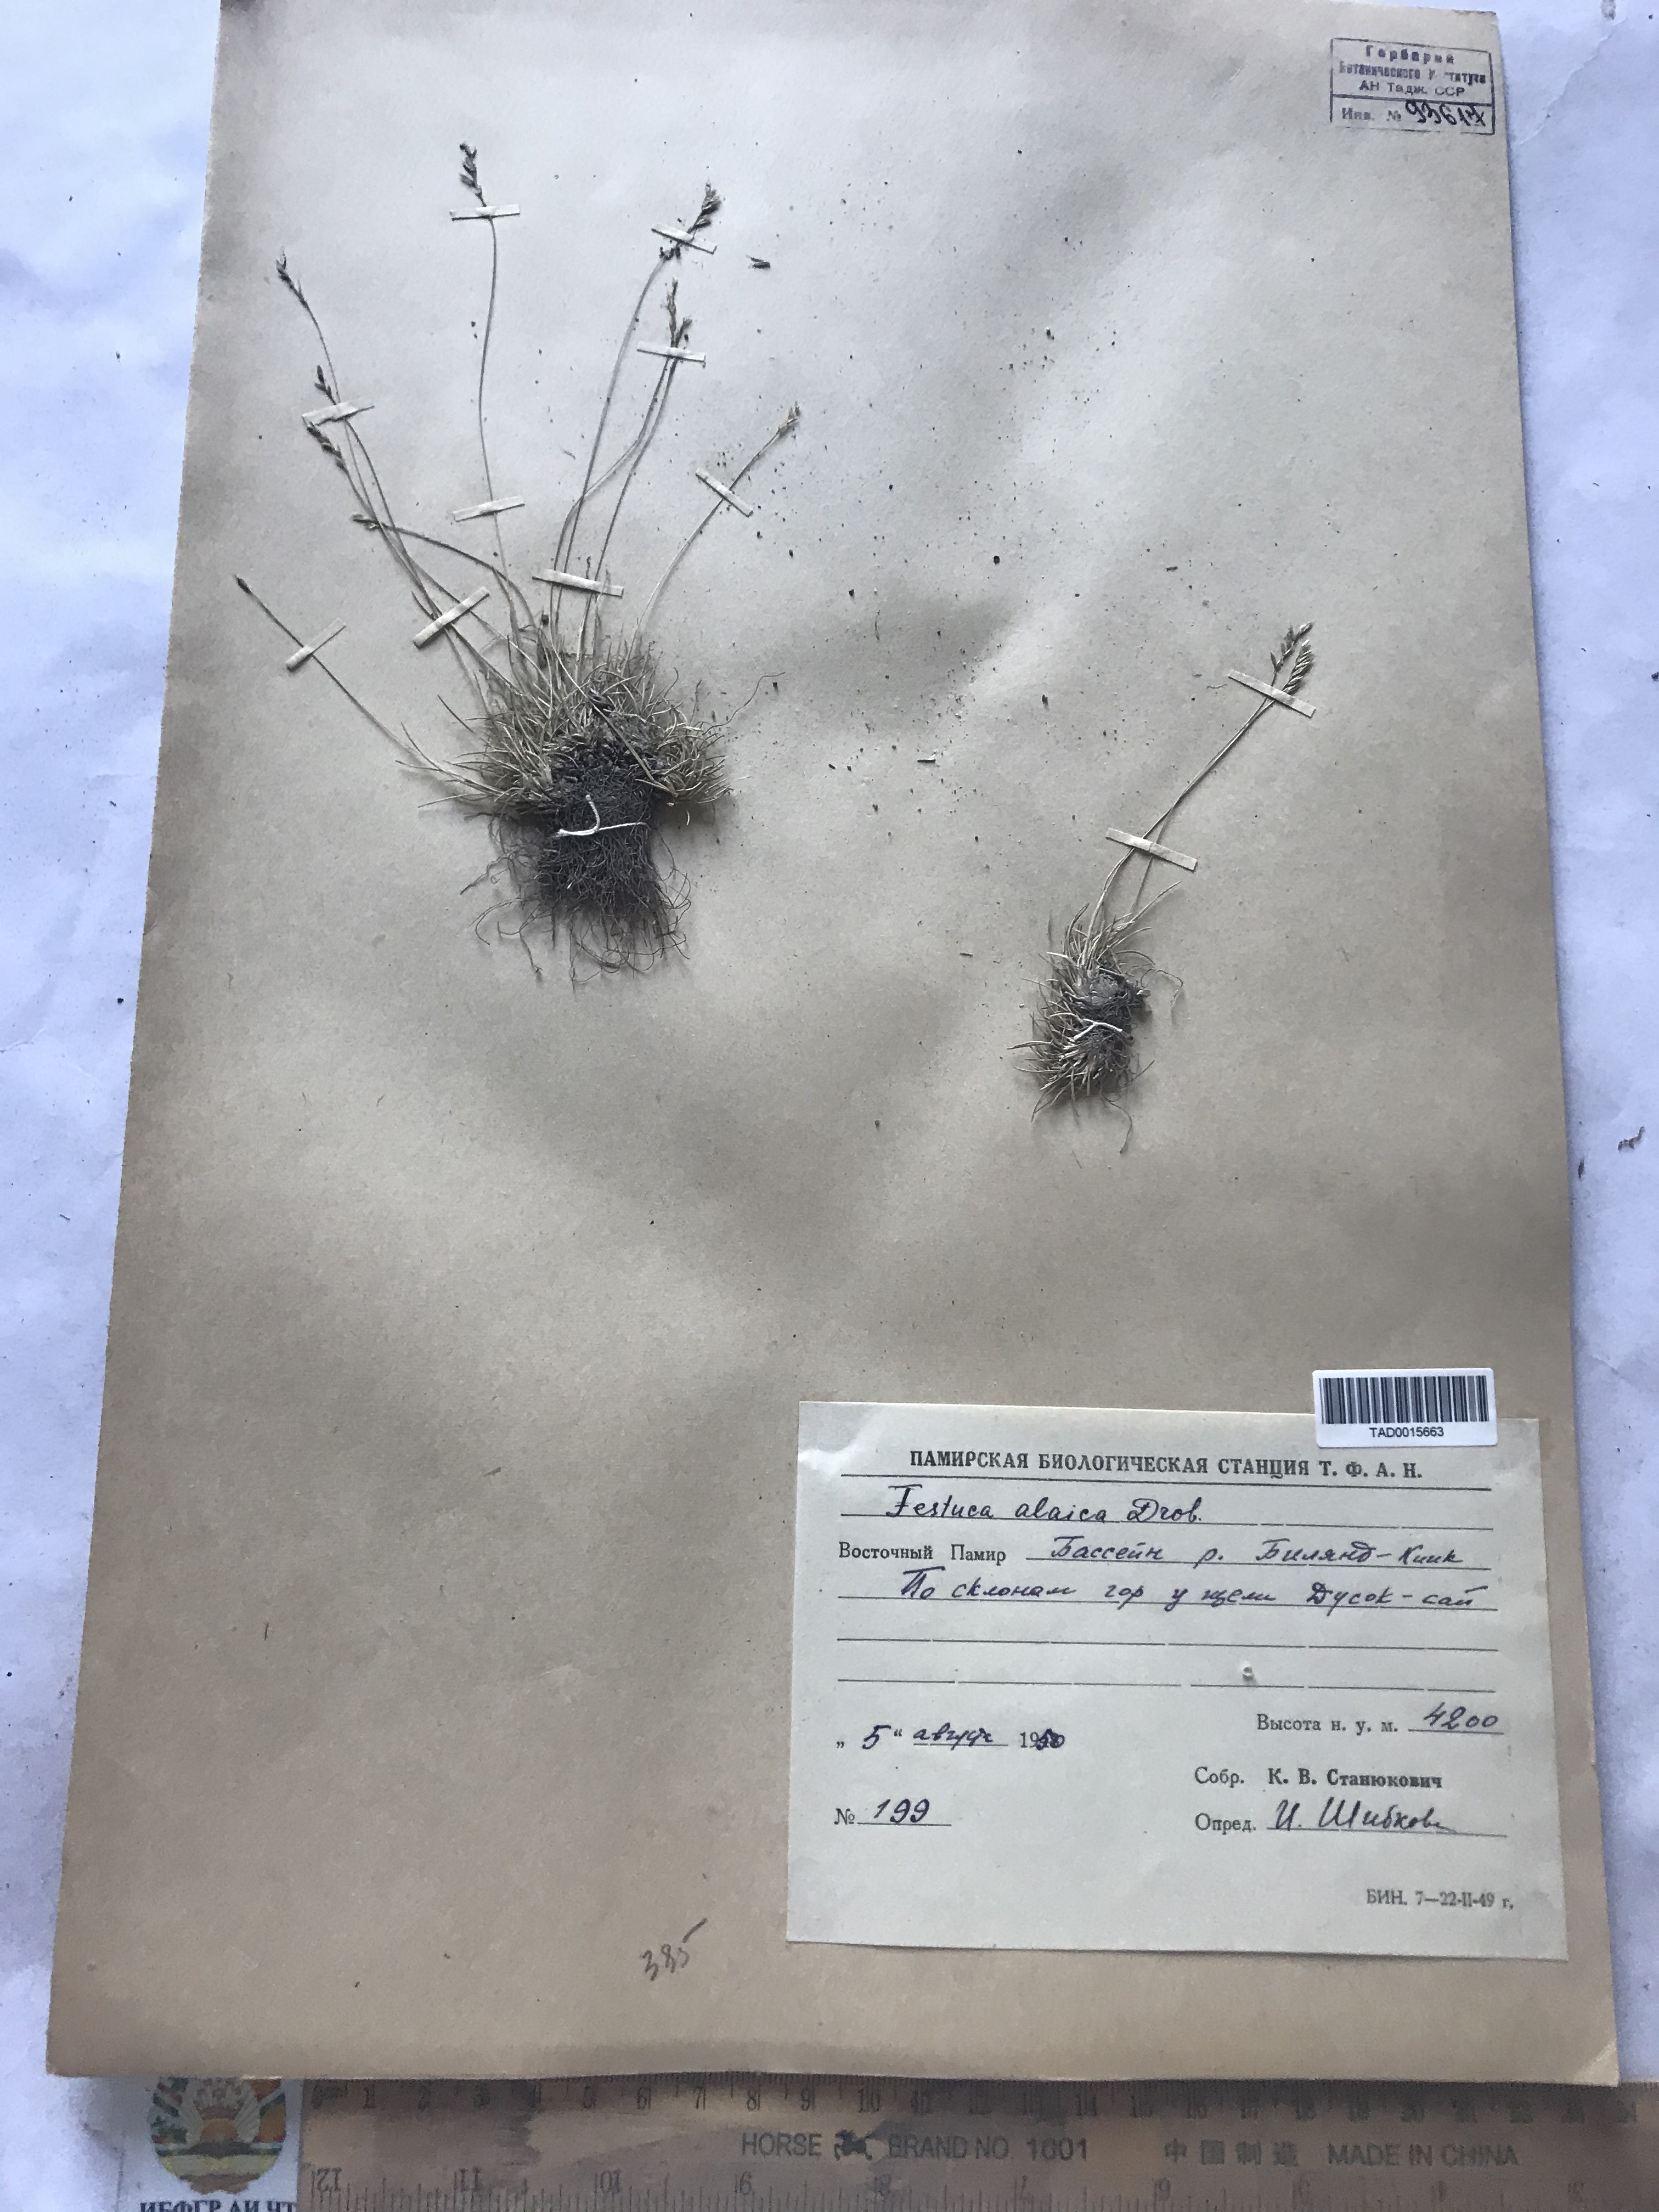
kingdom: Plantae
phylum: Tracheophyta
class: Liliopsida
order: Poales
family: Poaceae
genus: Festuca
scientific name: Festuca alaica
